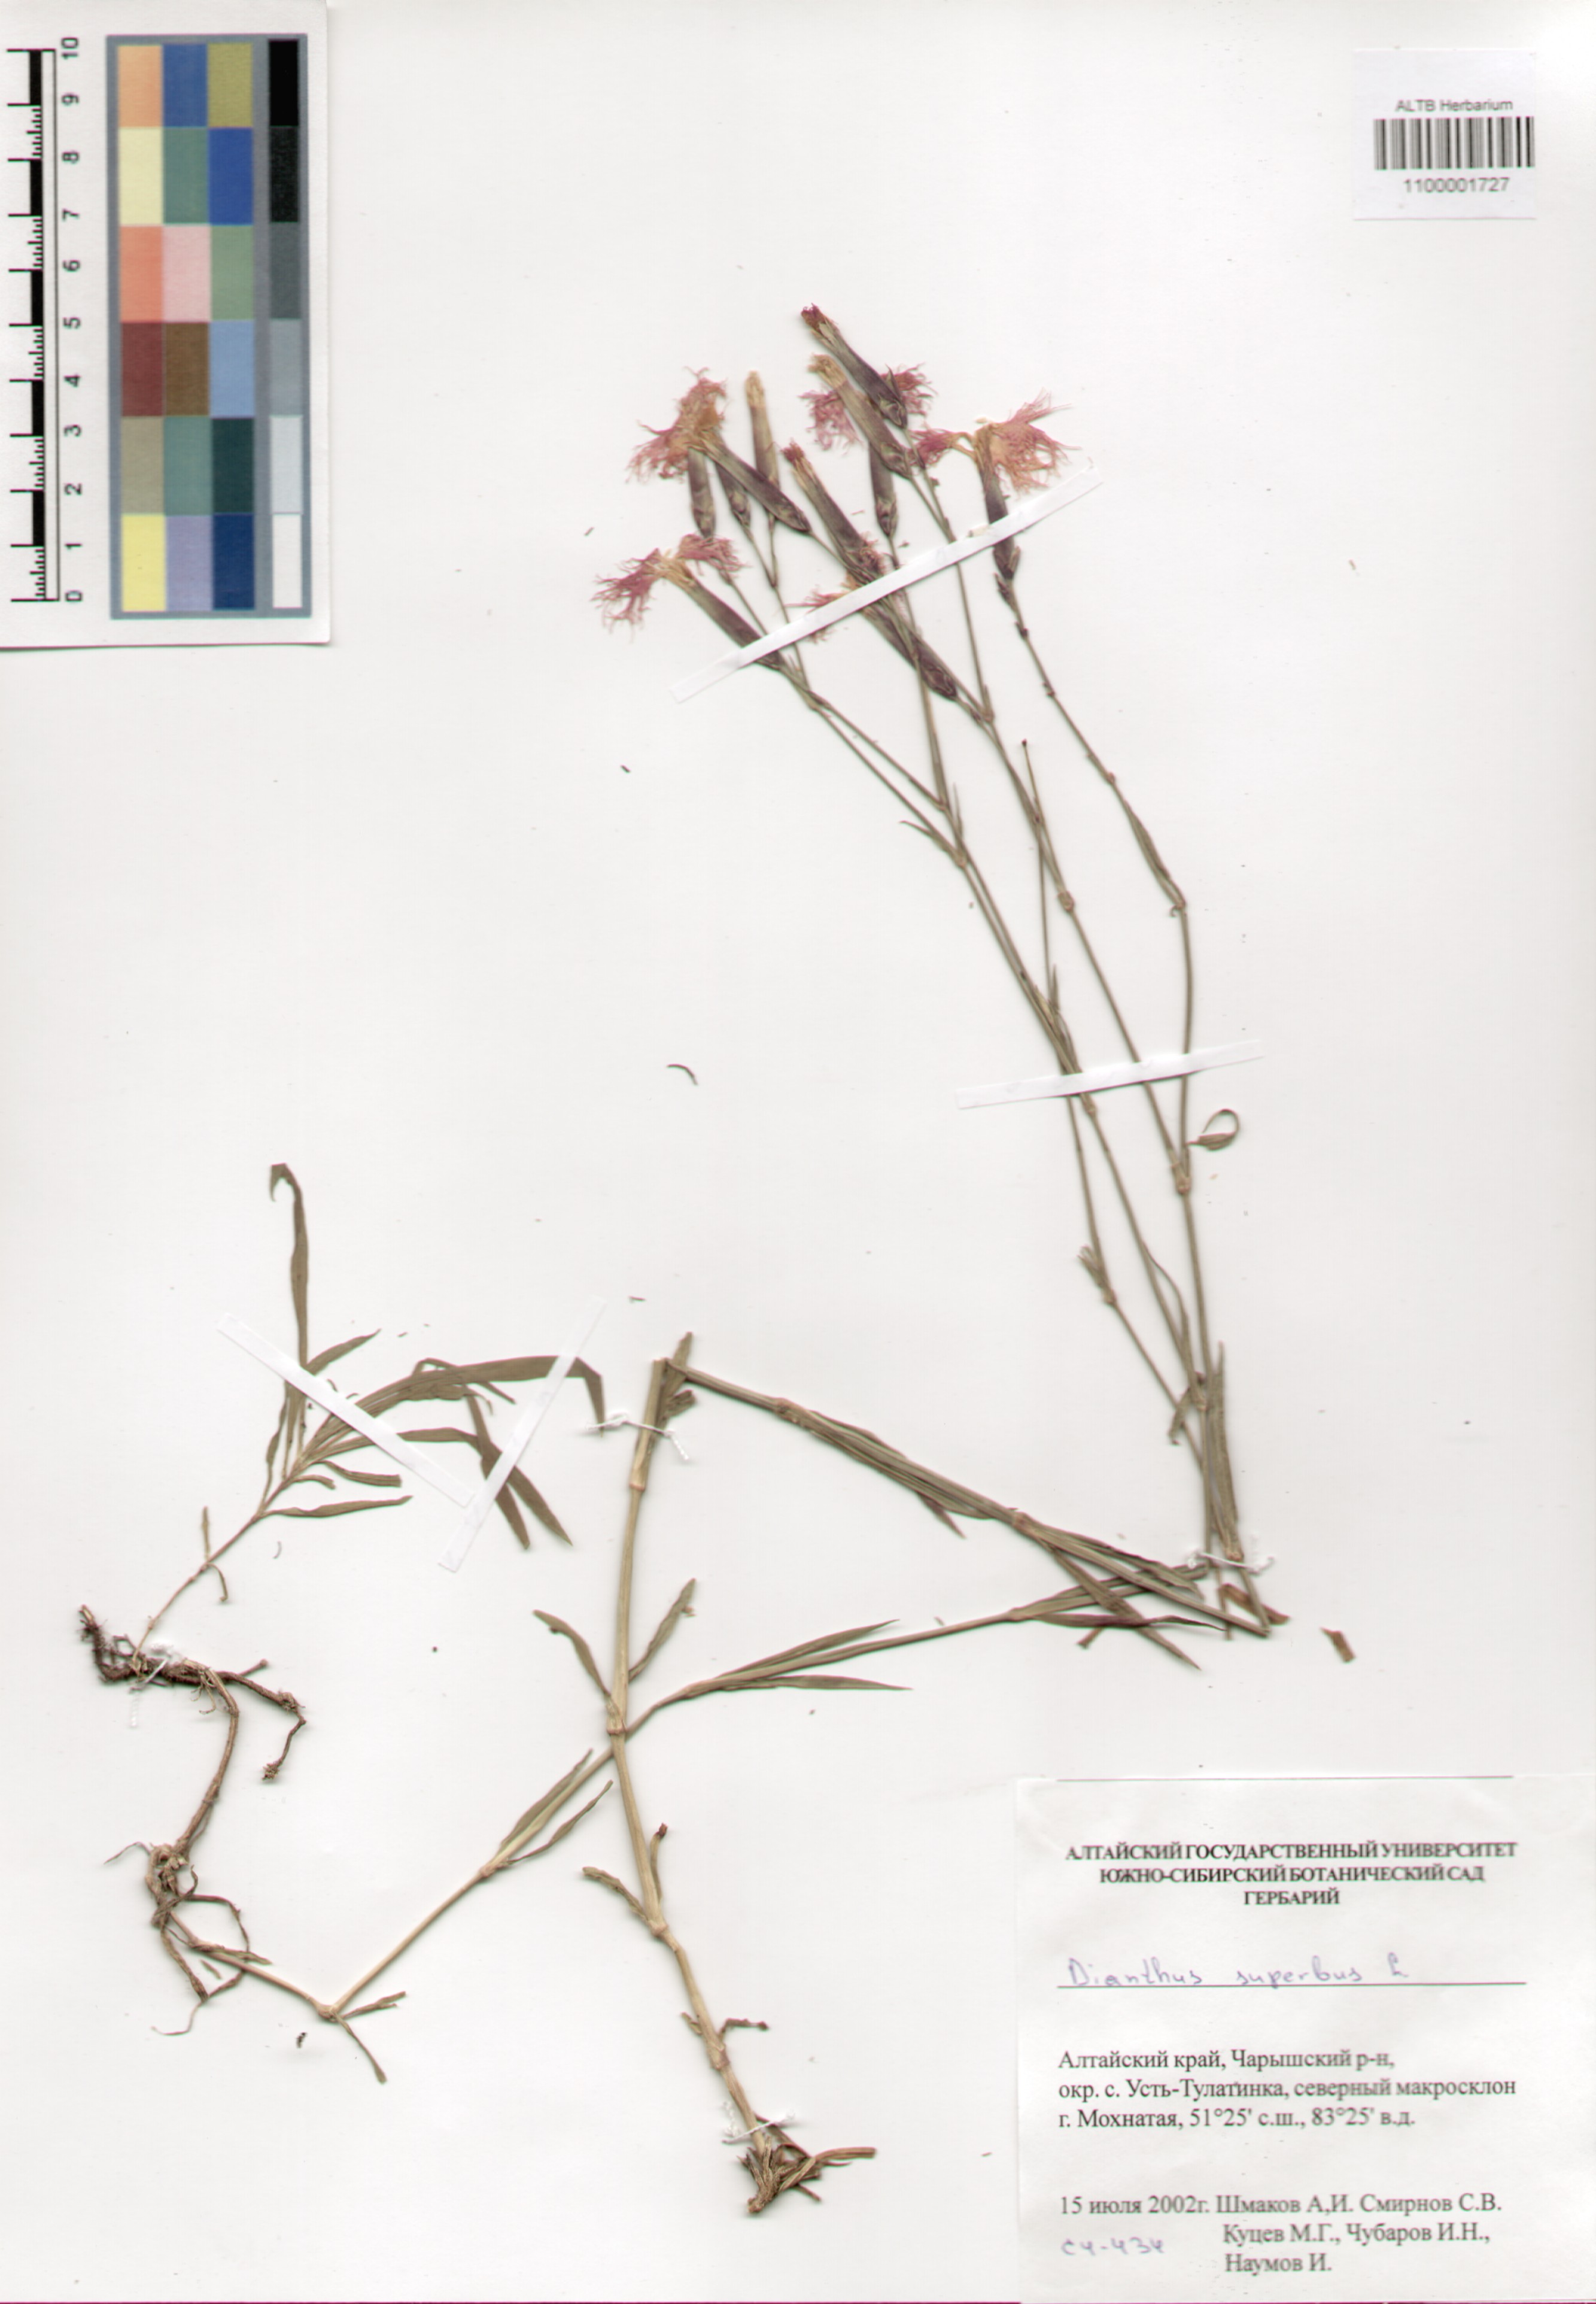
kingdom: Plantae
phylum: Tracheophyta
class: Magnoliopsida
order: Caryophyllales
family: Caryophyllaceae
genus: Dianthus
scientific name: Dianthus superbus
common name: Fringed pink
